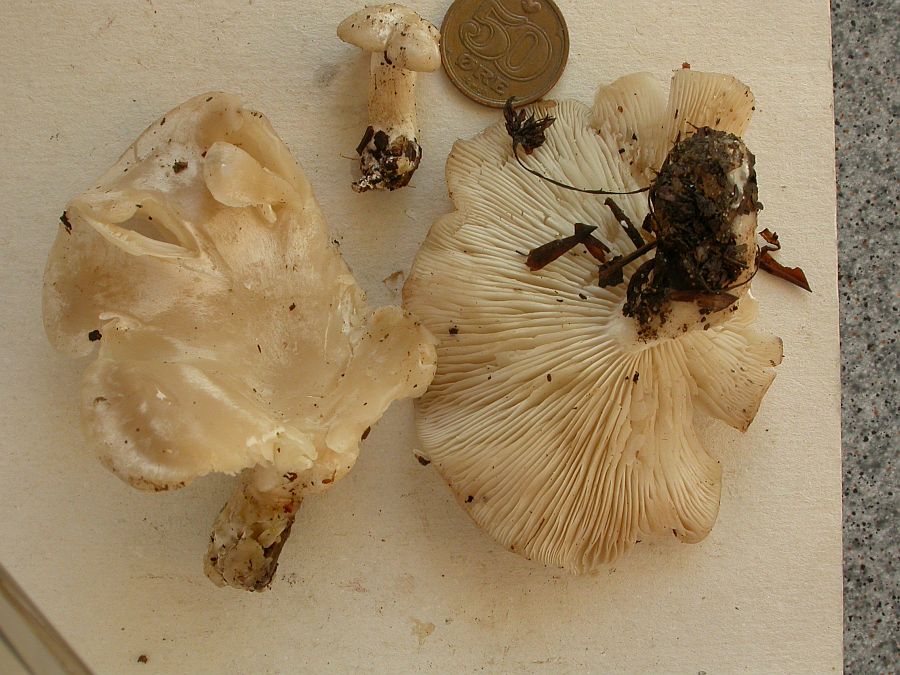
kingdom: Fungi
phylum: Basidiomycota
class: Agaricomycetes
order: Agaricales
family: Tricholomataceae
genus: Leucocybe
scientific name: Leucocybe connata
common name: knippe-tragthat
